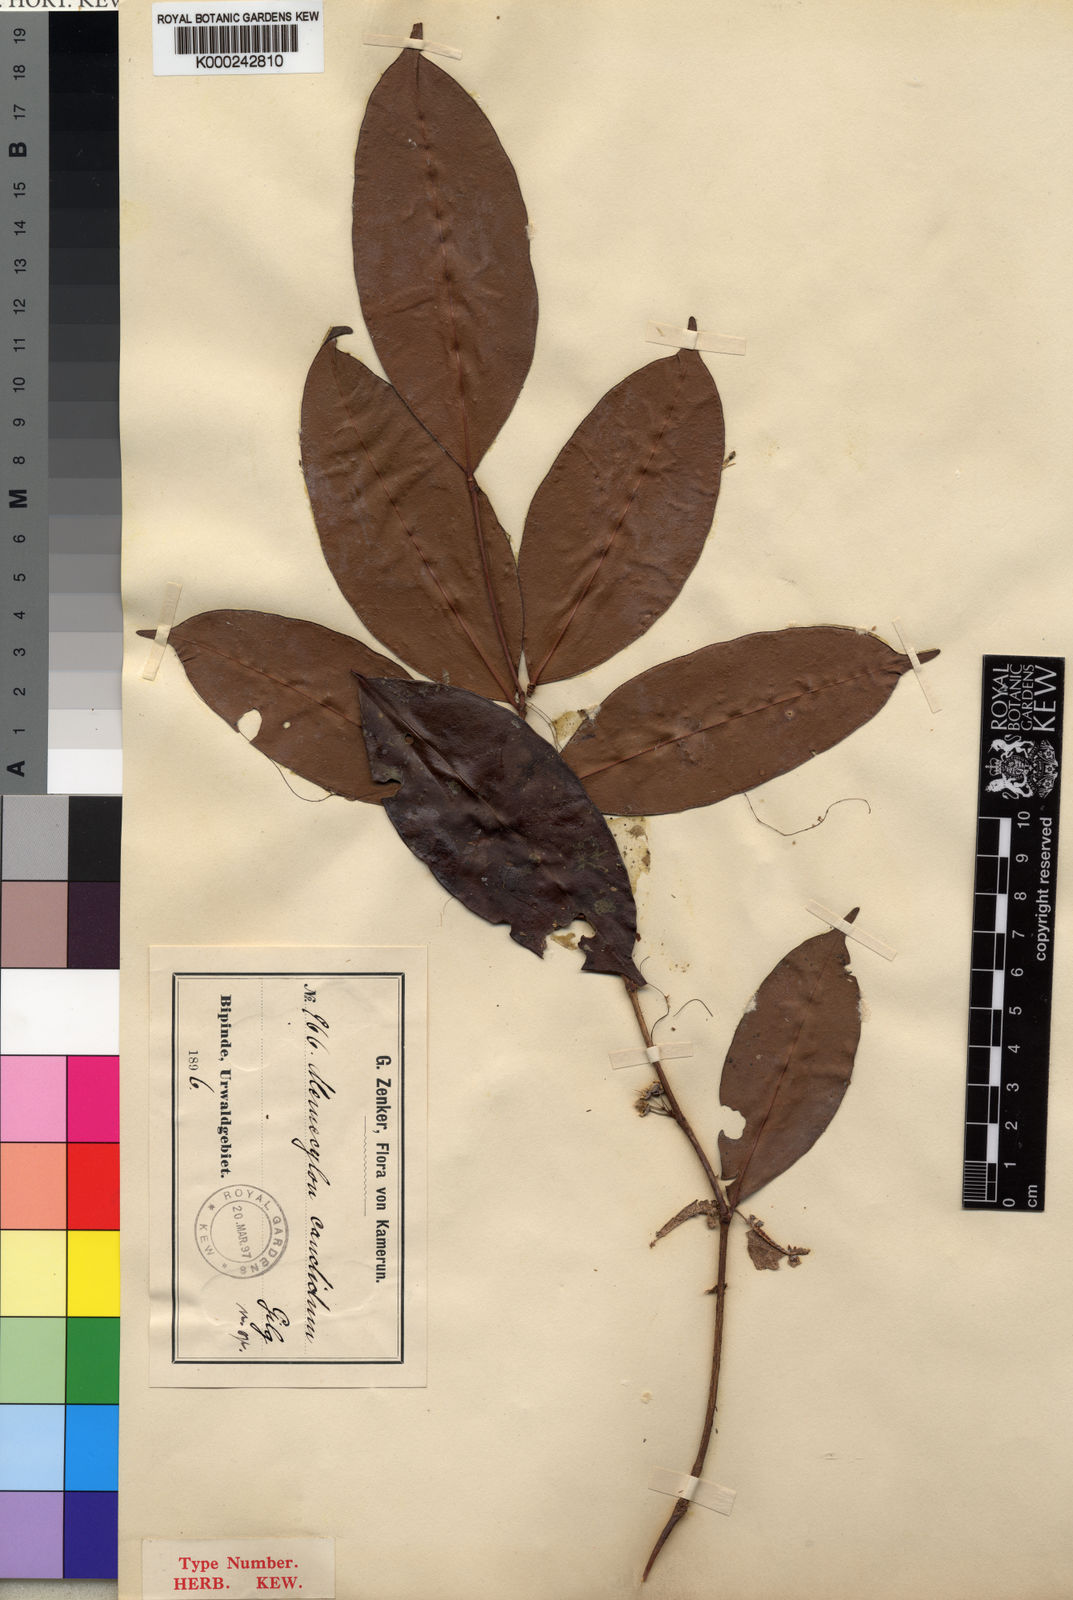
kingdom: Plantae
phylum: Tracheophyta
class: Magnoliopsida
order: Myrtales
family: Melastomataceae
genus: Memecylon
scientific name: Memecylon candidum
